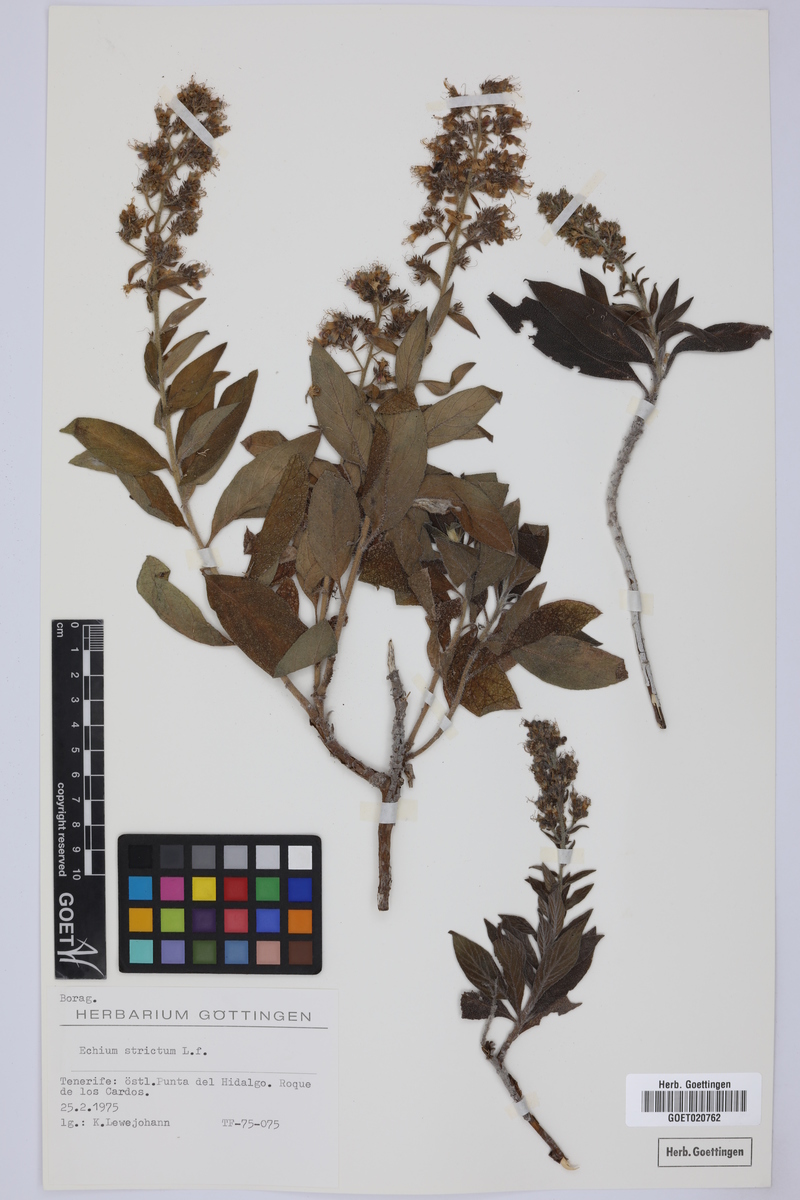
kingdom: Plantae
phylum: Tracheophyta
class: Magnoliopsida
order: Boraginales
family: Boraginaceae
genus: Echium
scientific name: Echium strictum
